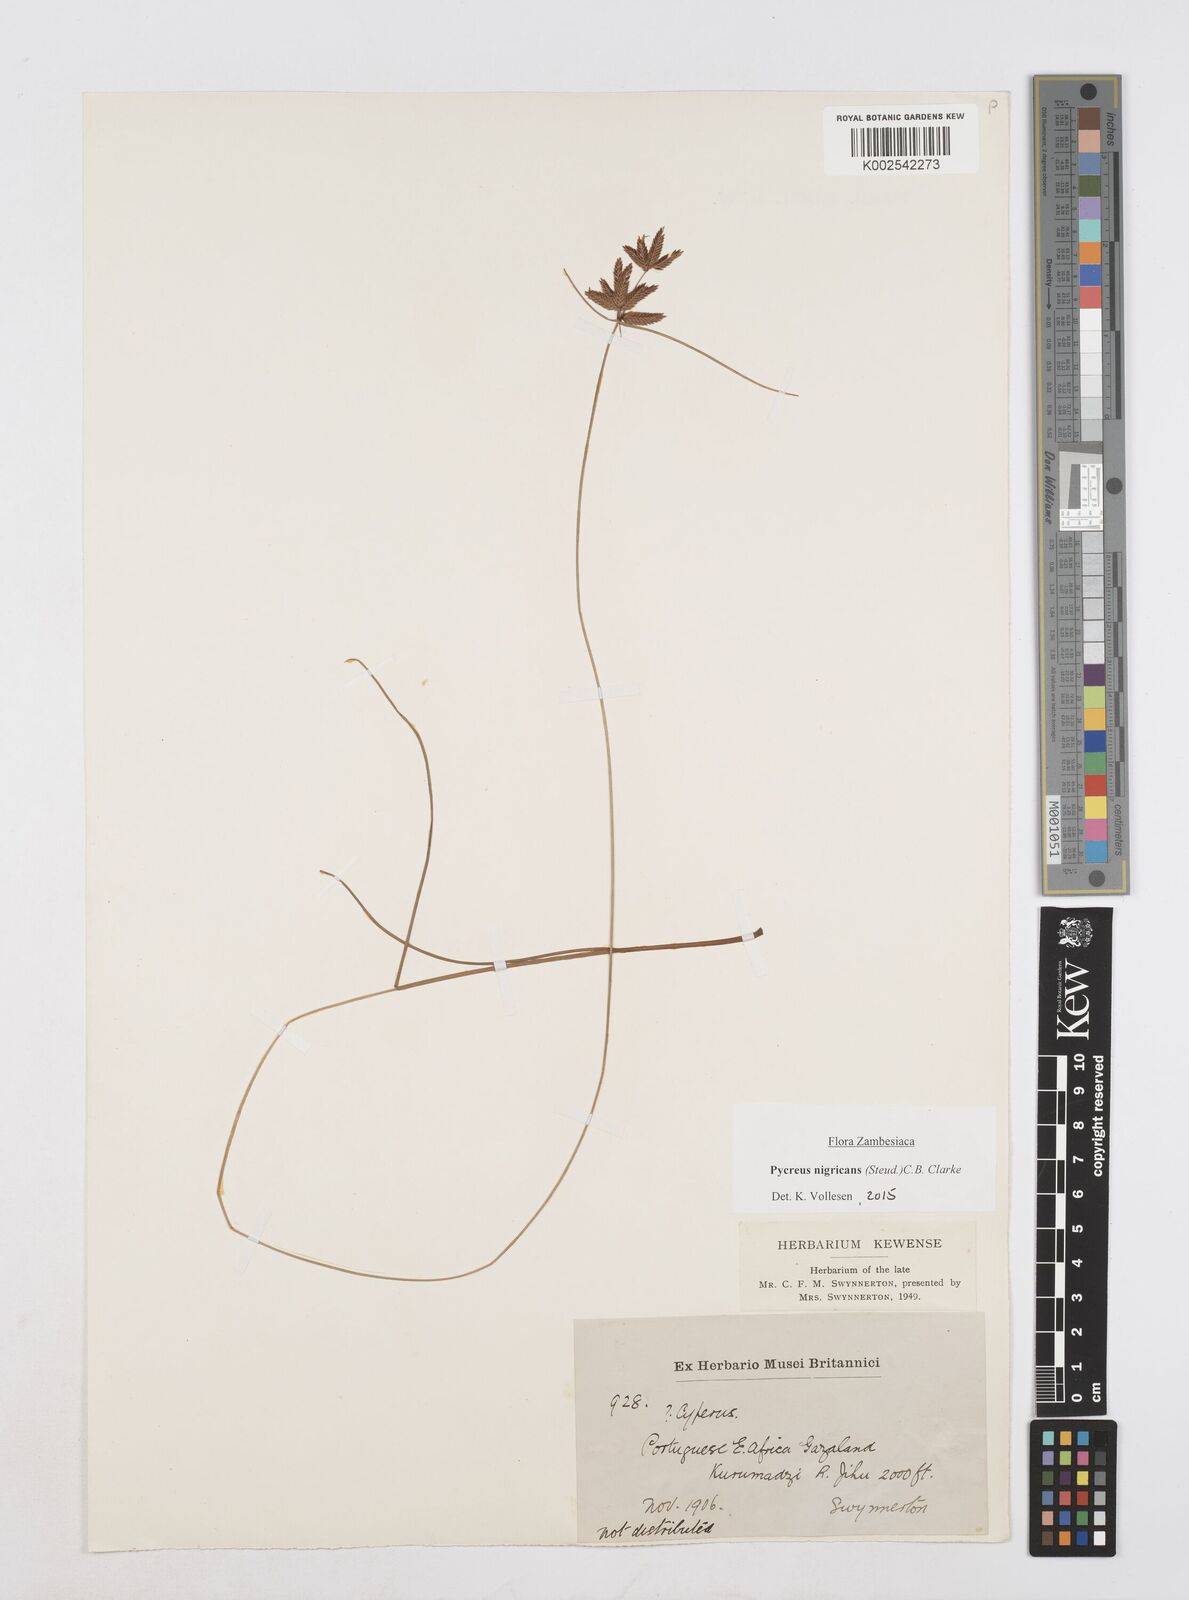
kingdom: Plantae
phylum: Tracheophyta
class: Liliopsida
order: Poales
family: Cyperaceae
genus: Cyperus
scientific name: Cyperus nigricans
